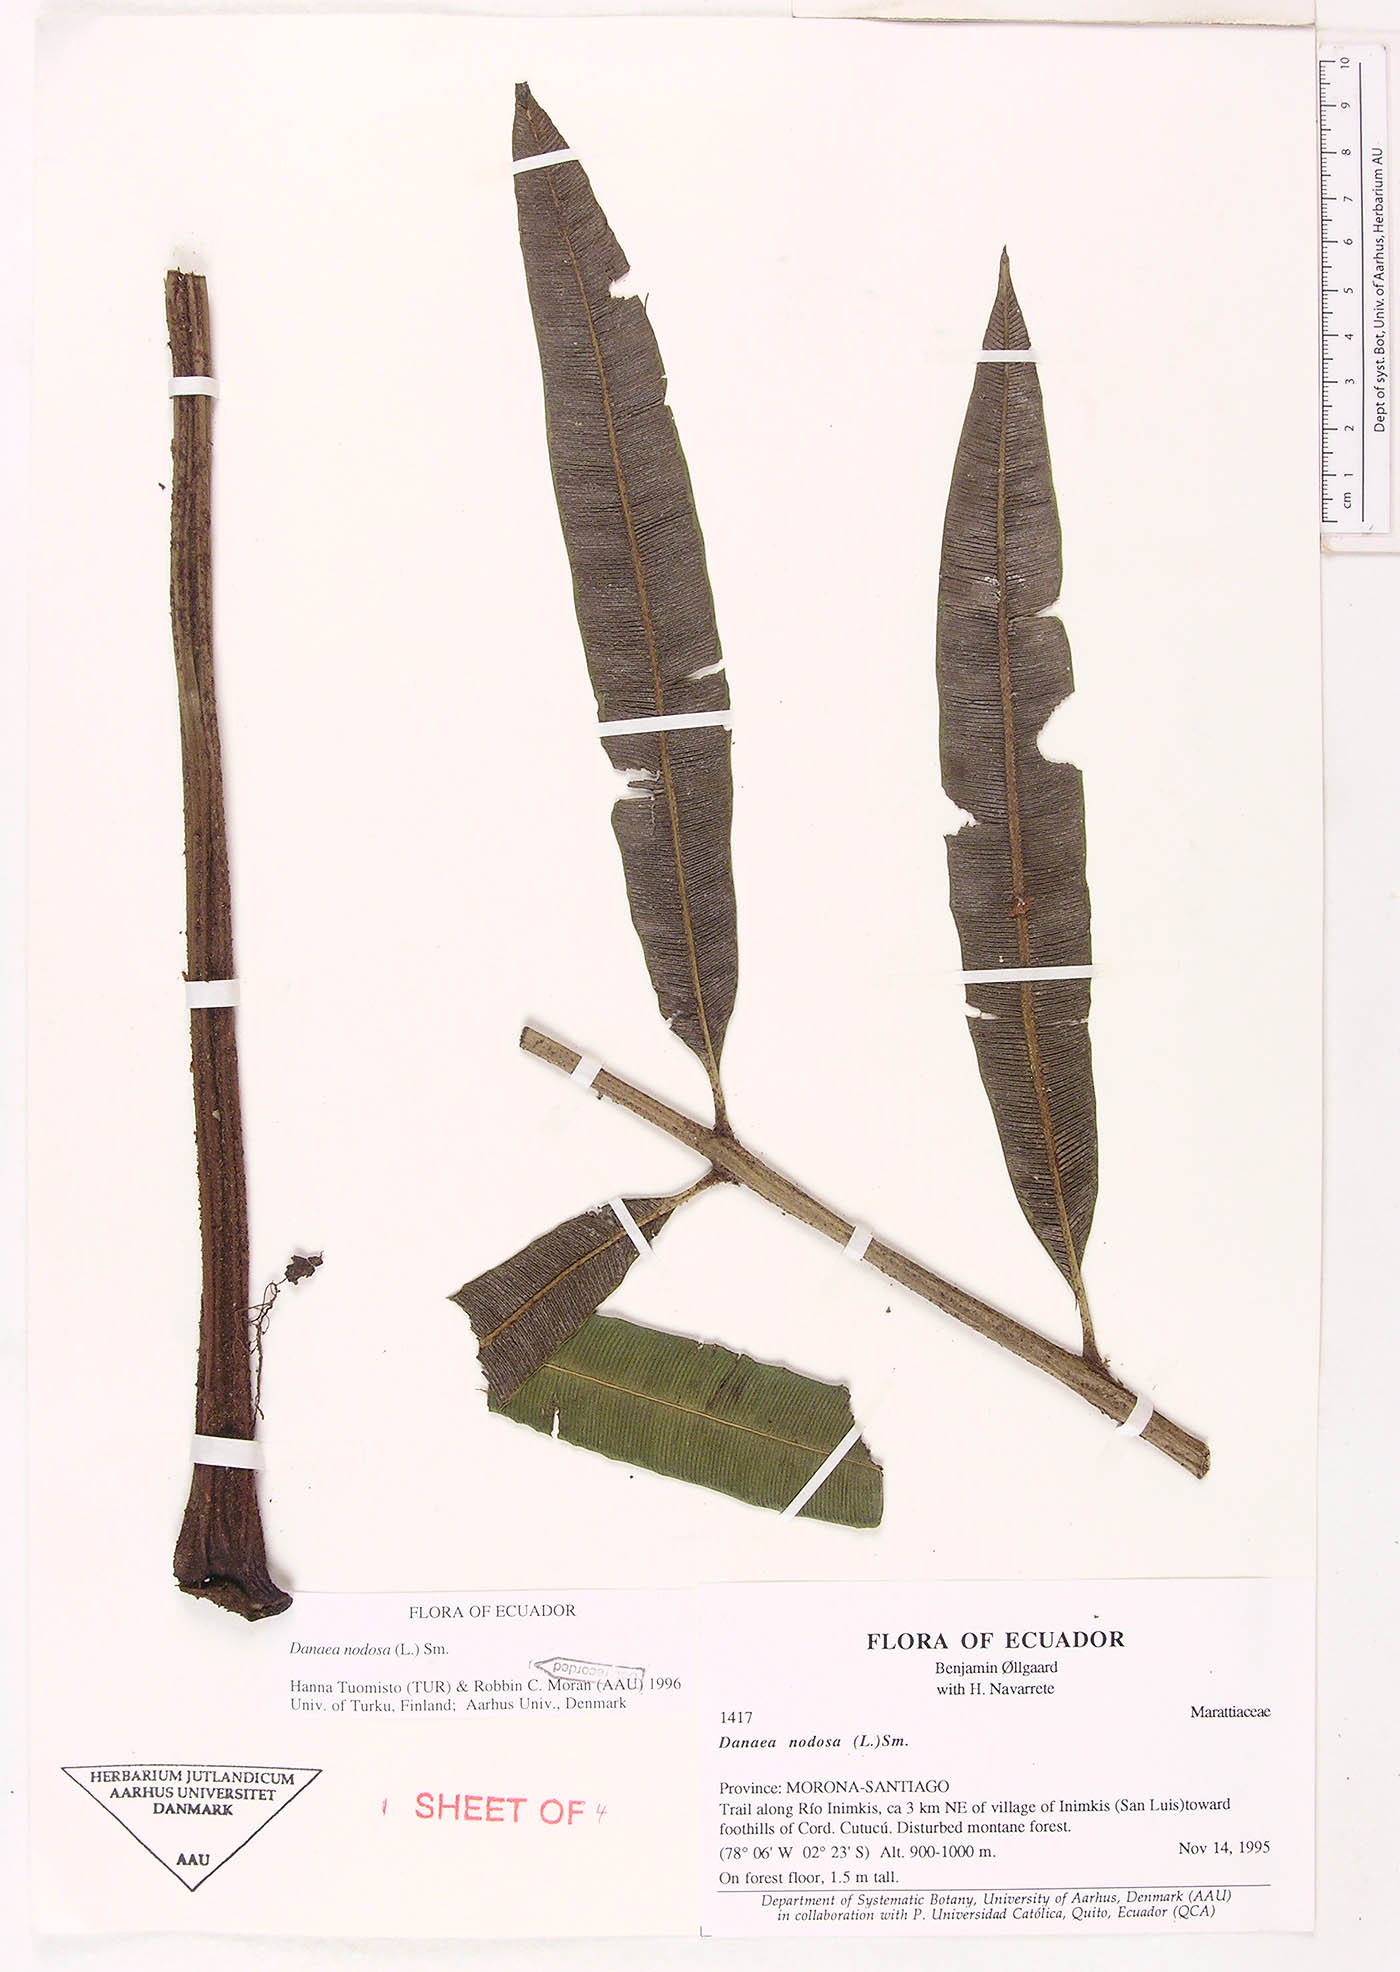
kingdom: Plantae
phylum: Tracheophyta
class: Polypodiopsida
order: Marattiales
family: Marattiaceae
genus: Danaea
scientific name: Danaea nodosa
